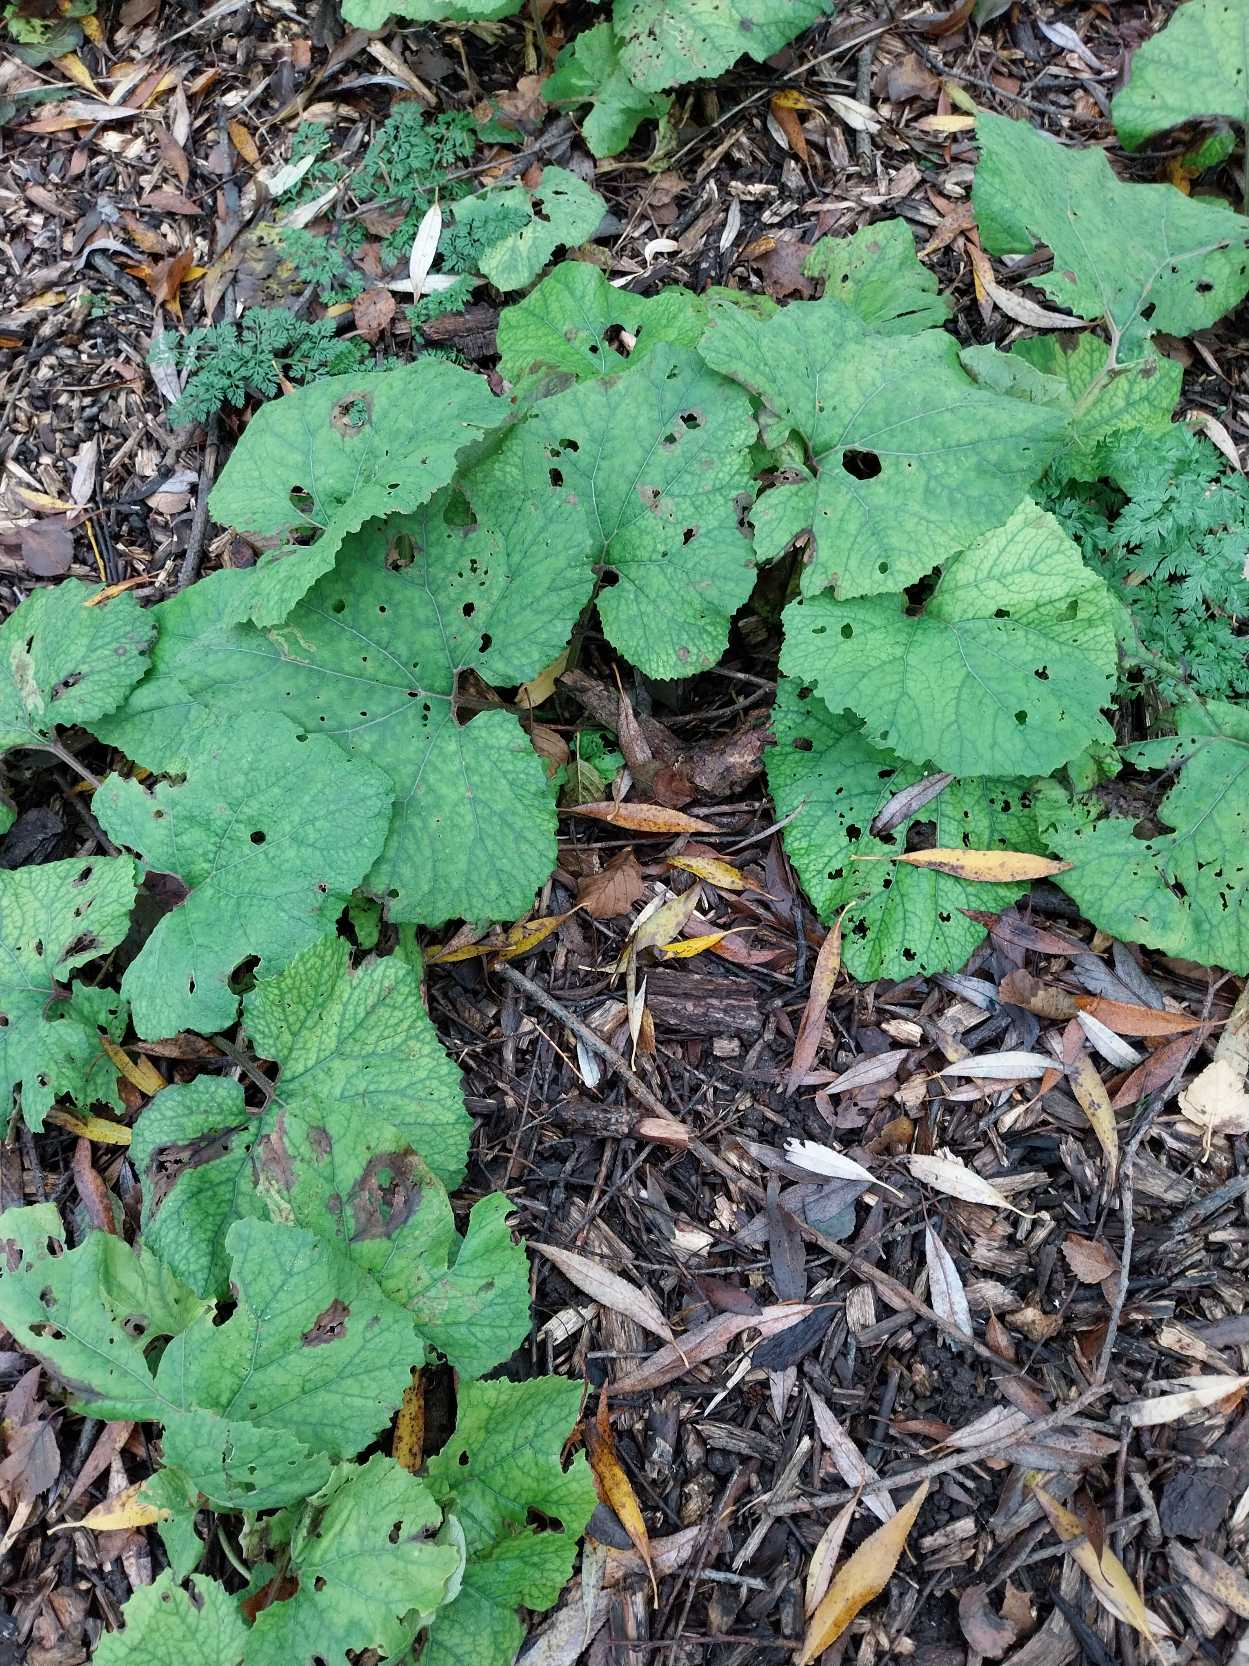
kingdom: Plantae
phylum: Tracheophyta
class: Magnoliopsida
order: Asterales
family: Asteraceae
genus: Petasites
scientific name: Petasites hybridus
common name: Rød hestehov
